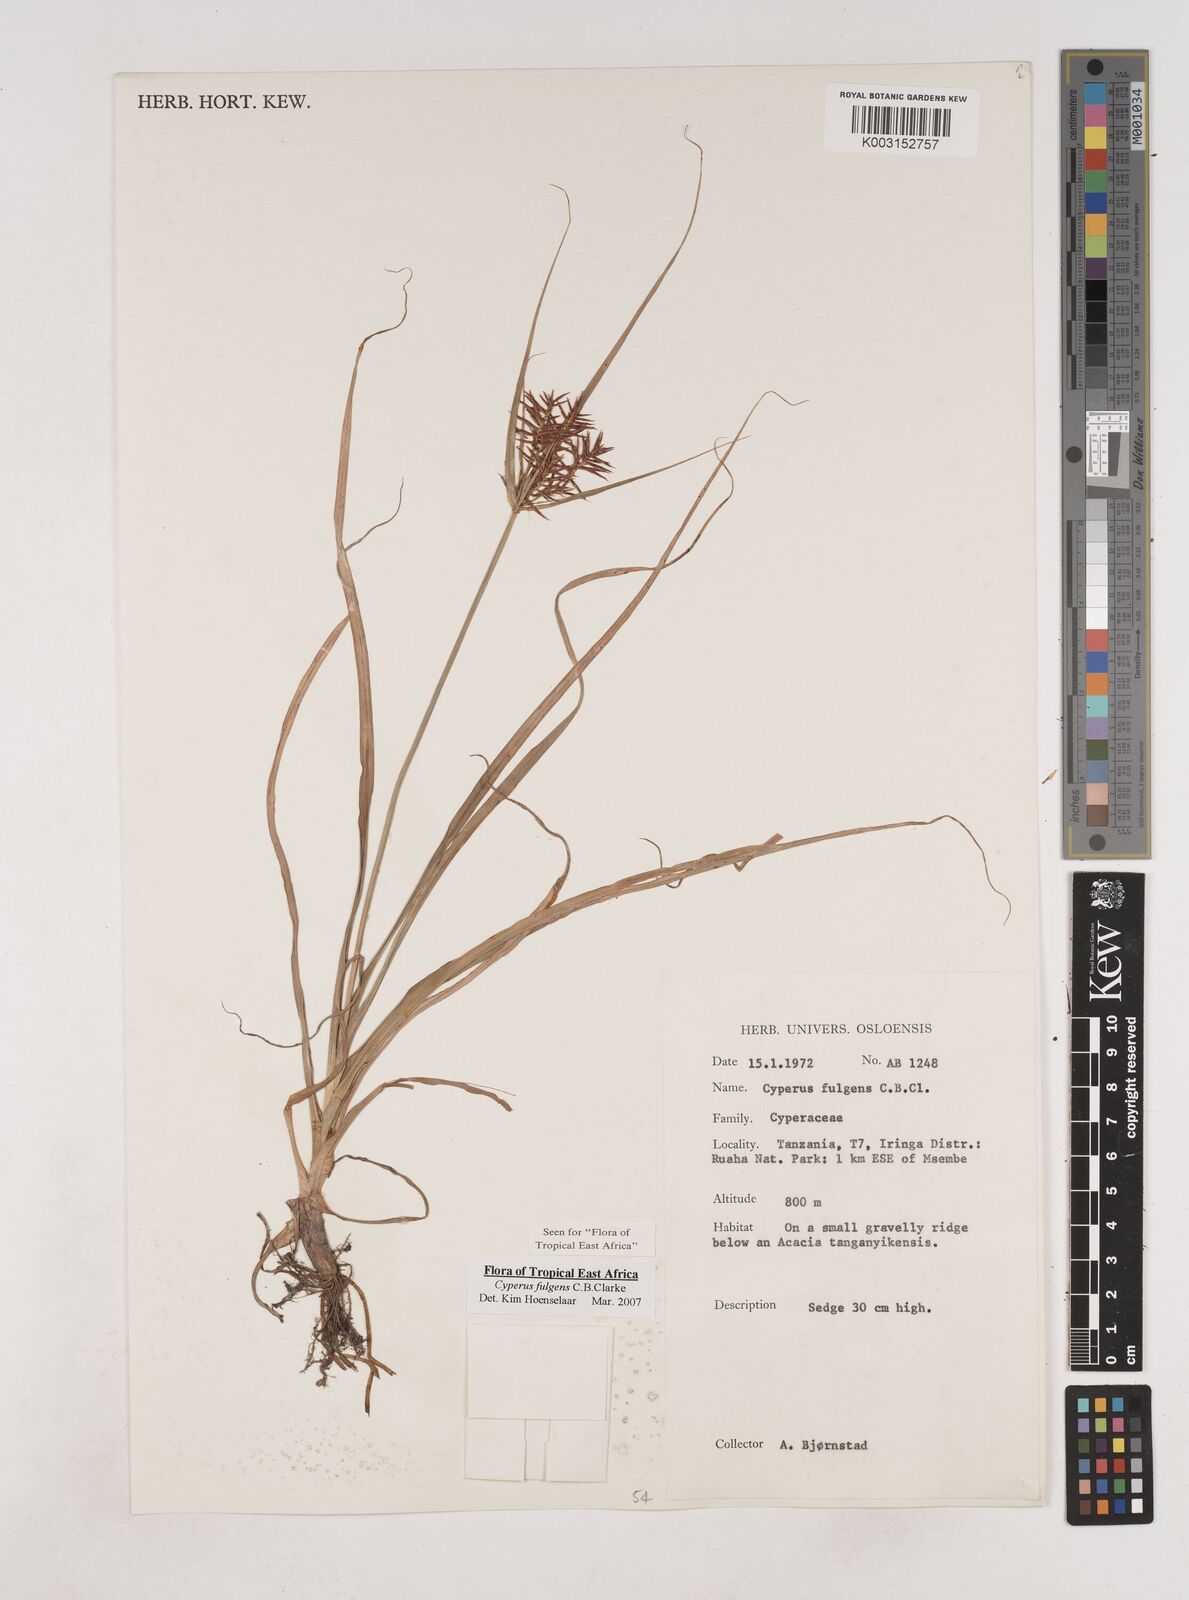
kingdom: Plantae
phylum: Tracheophyta
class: Liliopsida
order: Poales
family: Cyperaceae
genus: Cyperus
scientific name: Cyperus callistus
